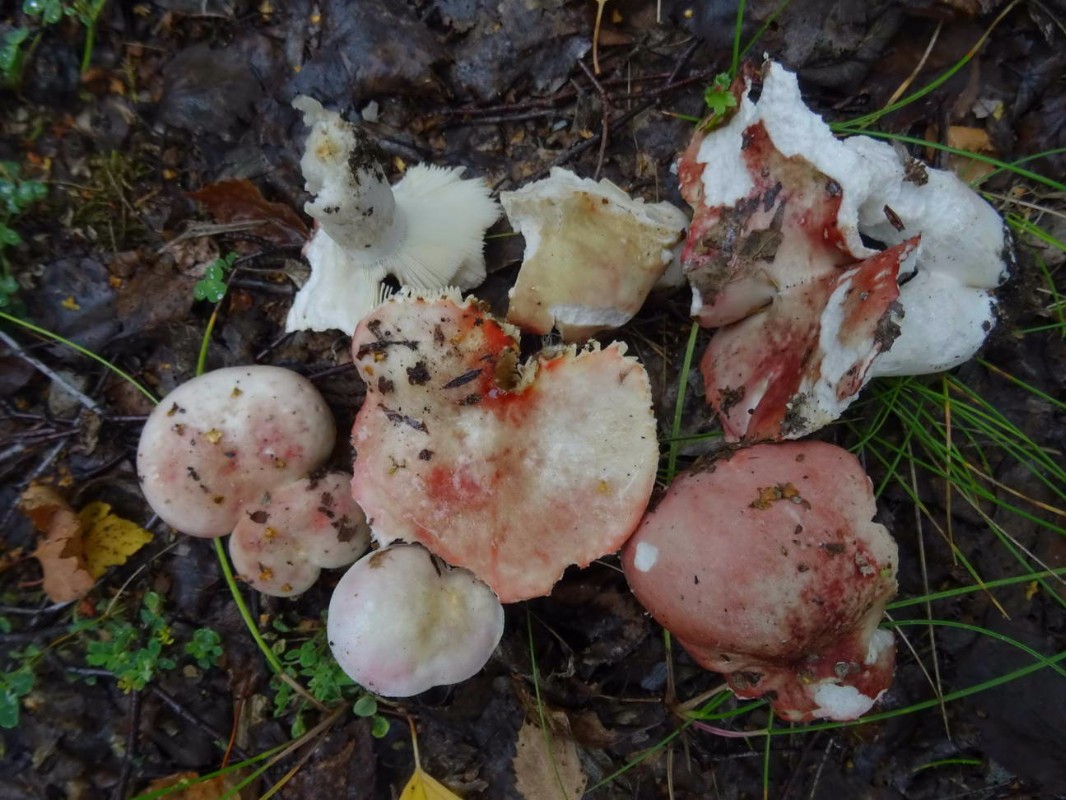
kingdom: Fungi
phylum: Basidiomycota
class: Agaricomycetes
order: Russulales
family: Russulaceae
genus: Russula
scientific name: Russula depallens
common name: falmende skørhat
